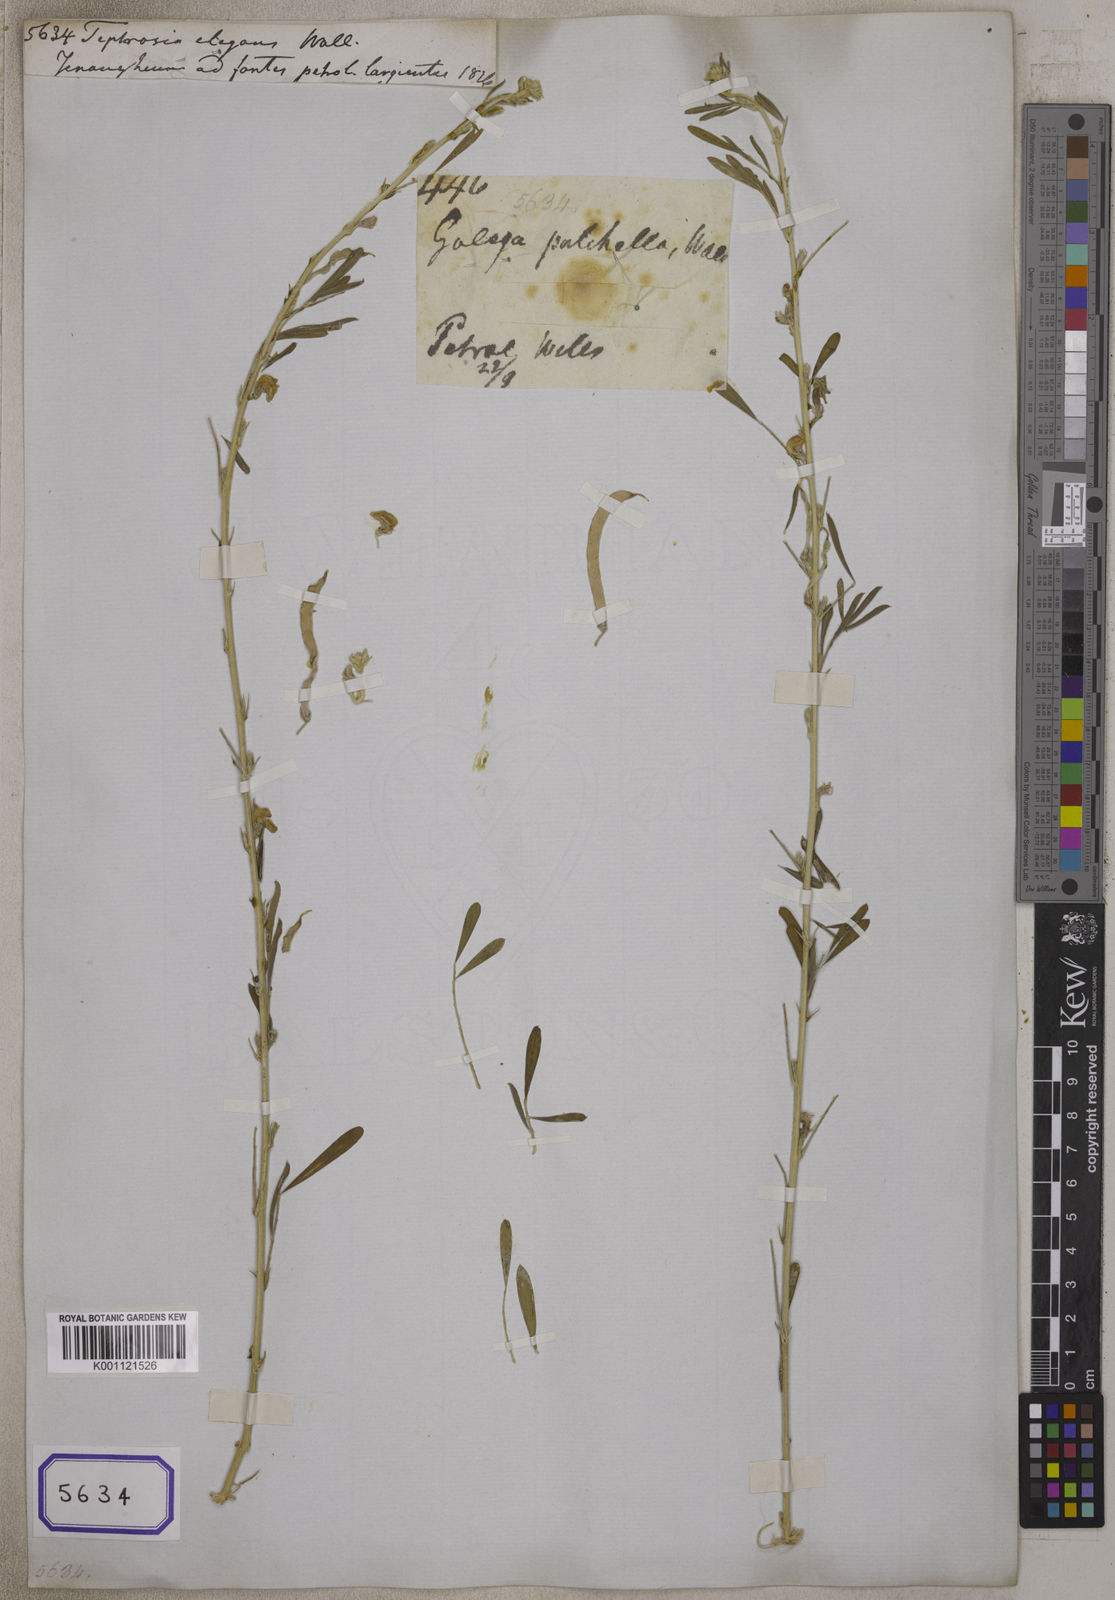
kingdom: Plantae
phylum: Tracheophyta
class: Magnoliopsida
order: Fabales
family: Fabaceae
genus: Tephrosia
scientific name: Tephrosia senticosa
